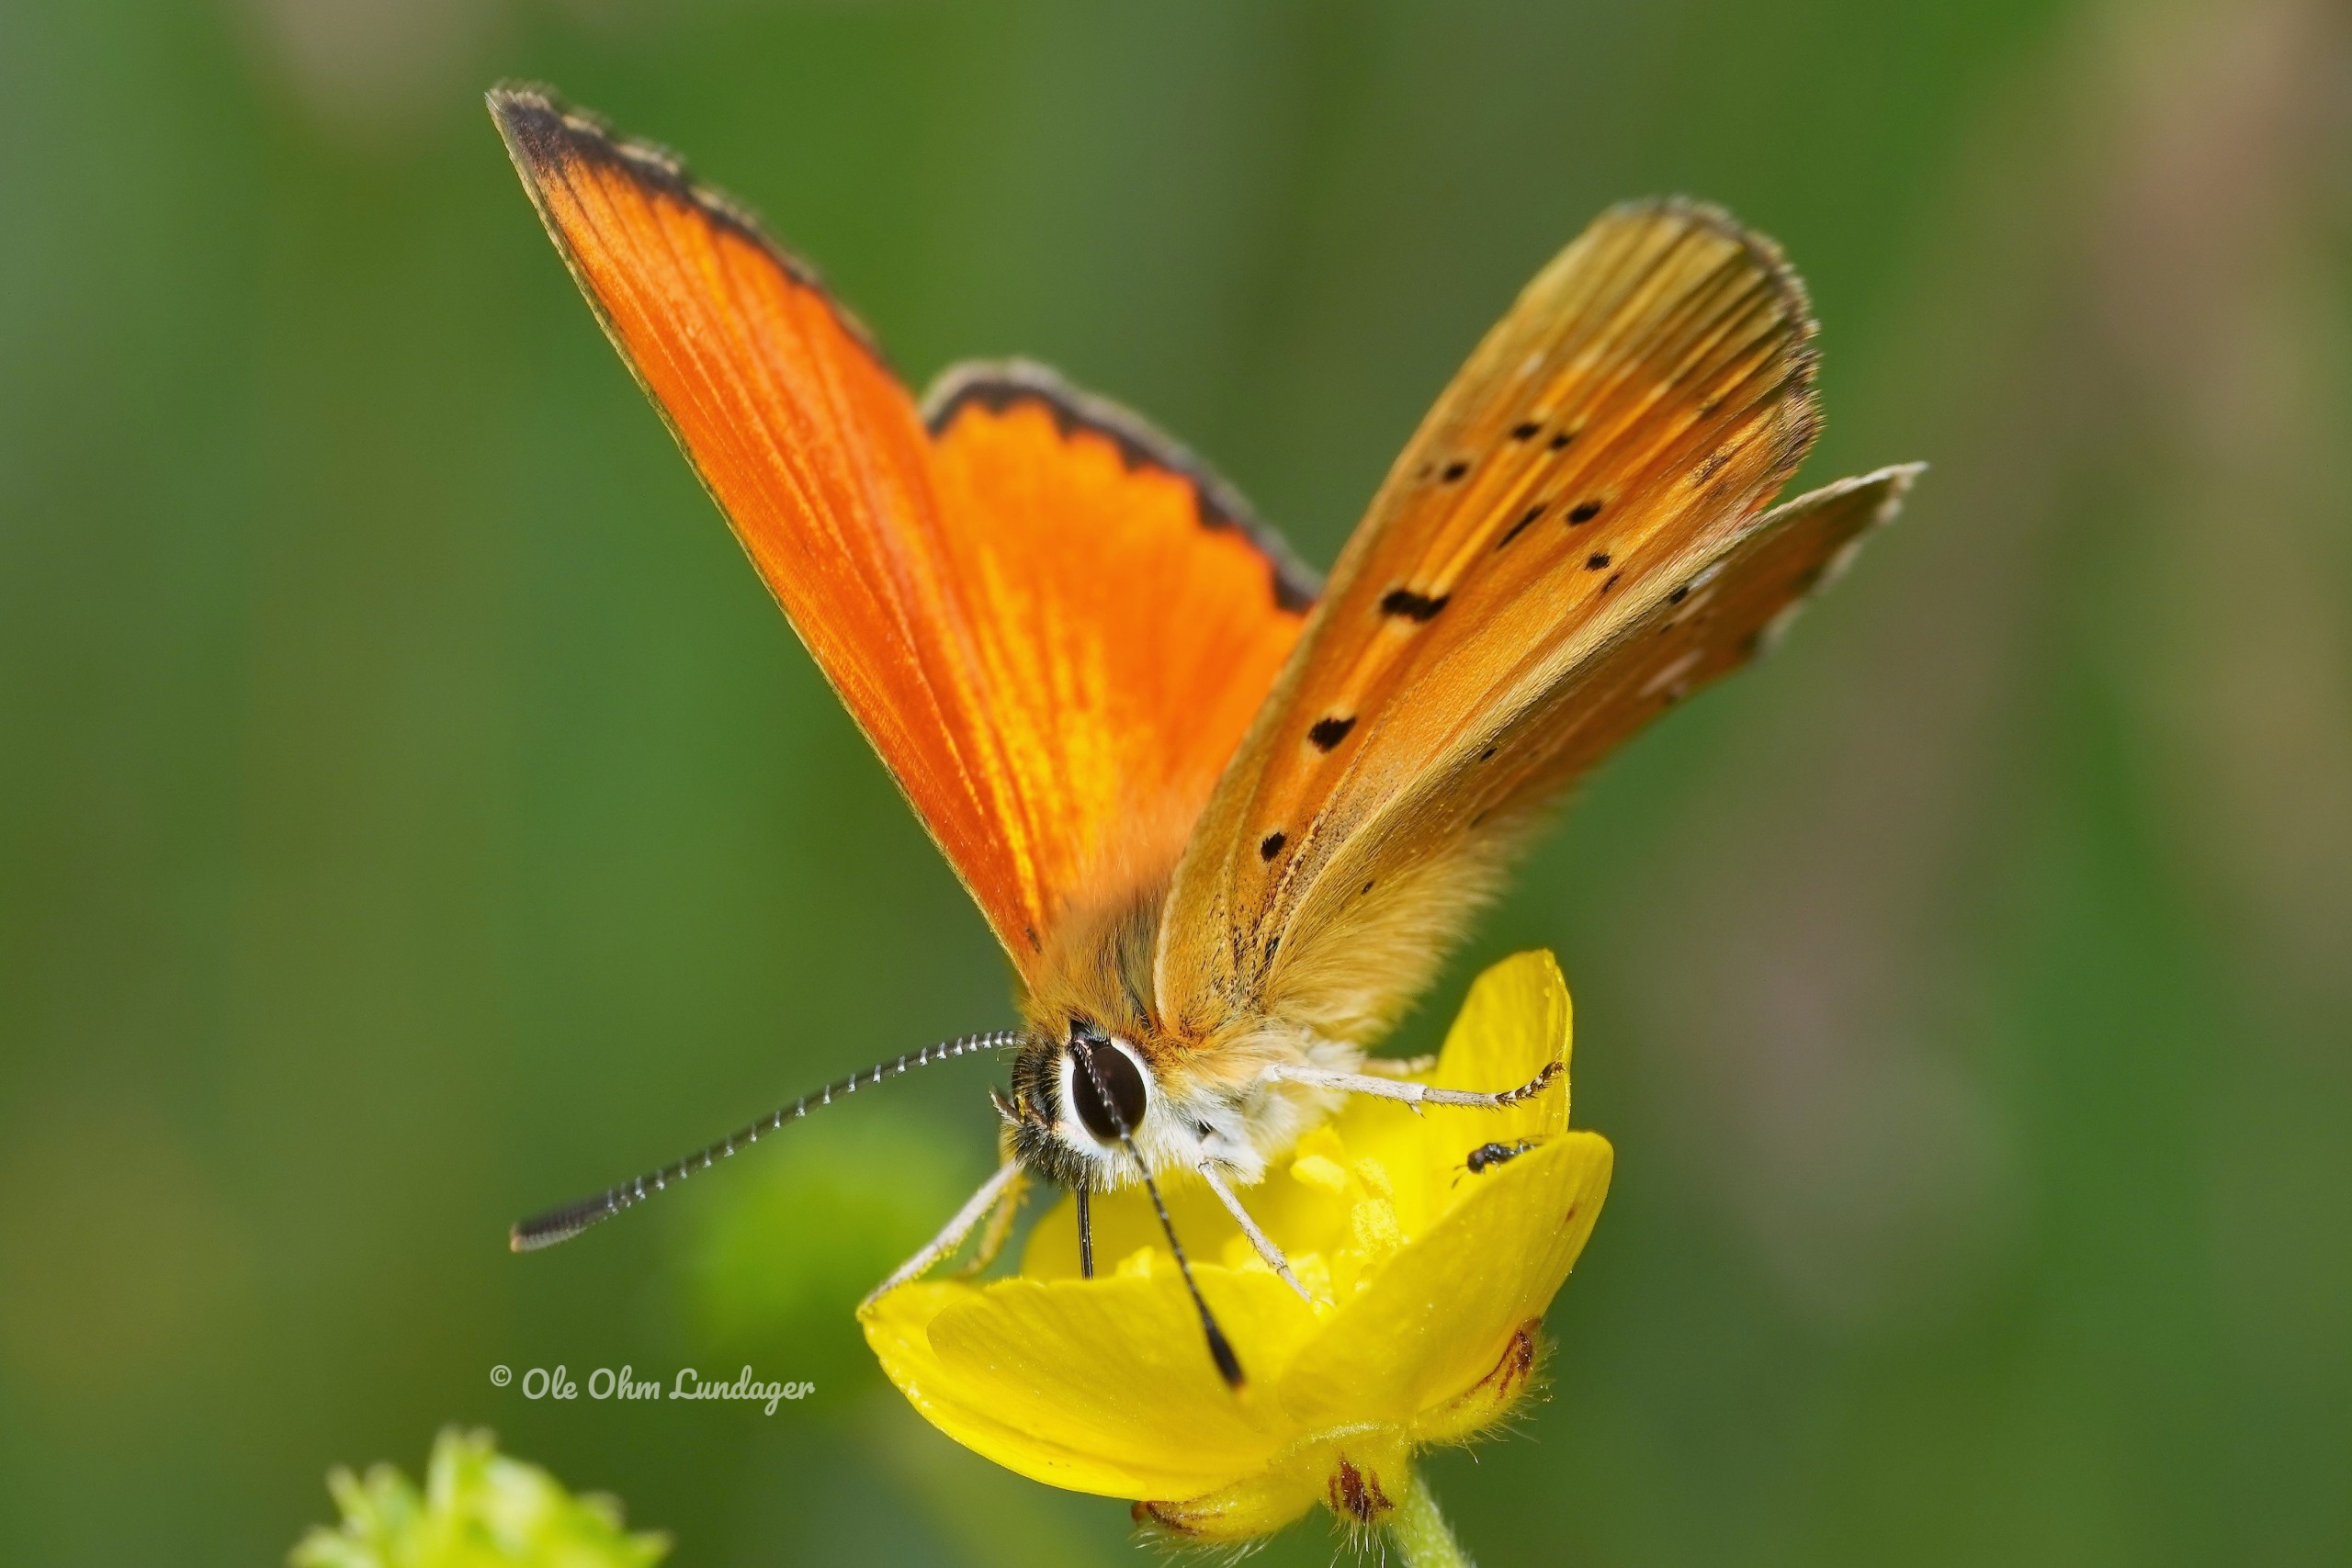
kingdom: Animalia
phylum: Arthropoda
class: Insecta
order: Lepidoptera
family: Lycaenidae
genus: Lycaena
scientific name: Lycaena virgaureae
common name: Dukatsommerfugl
